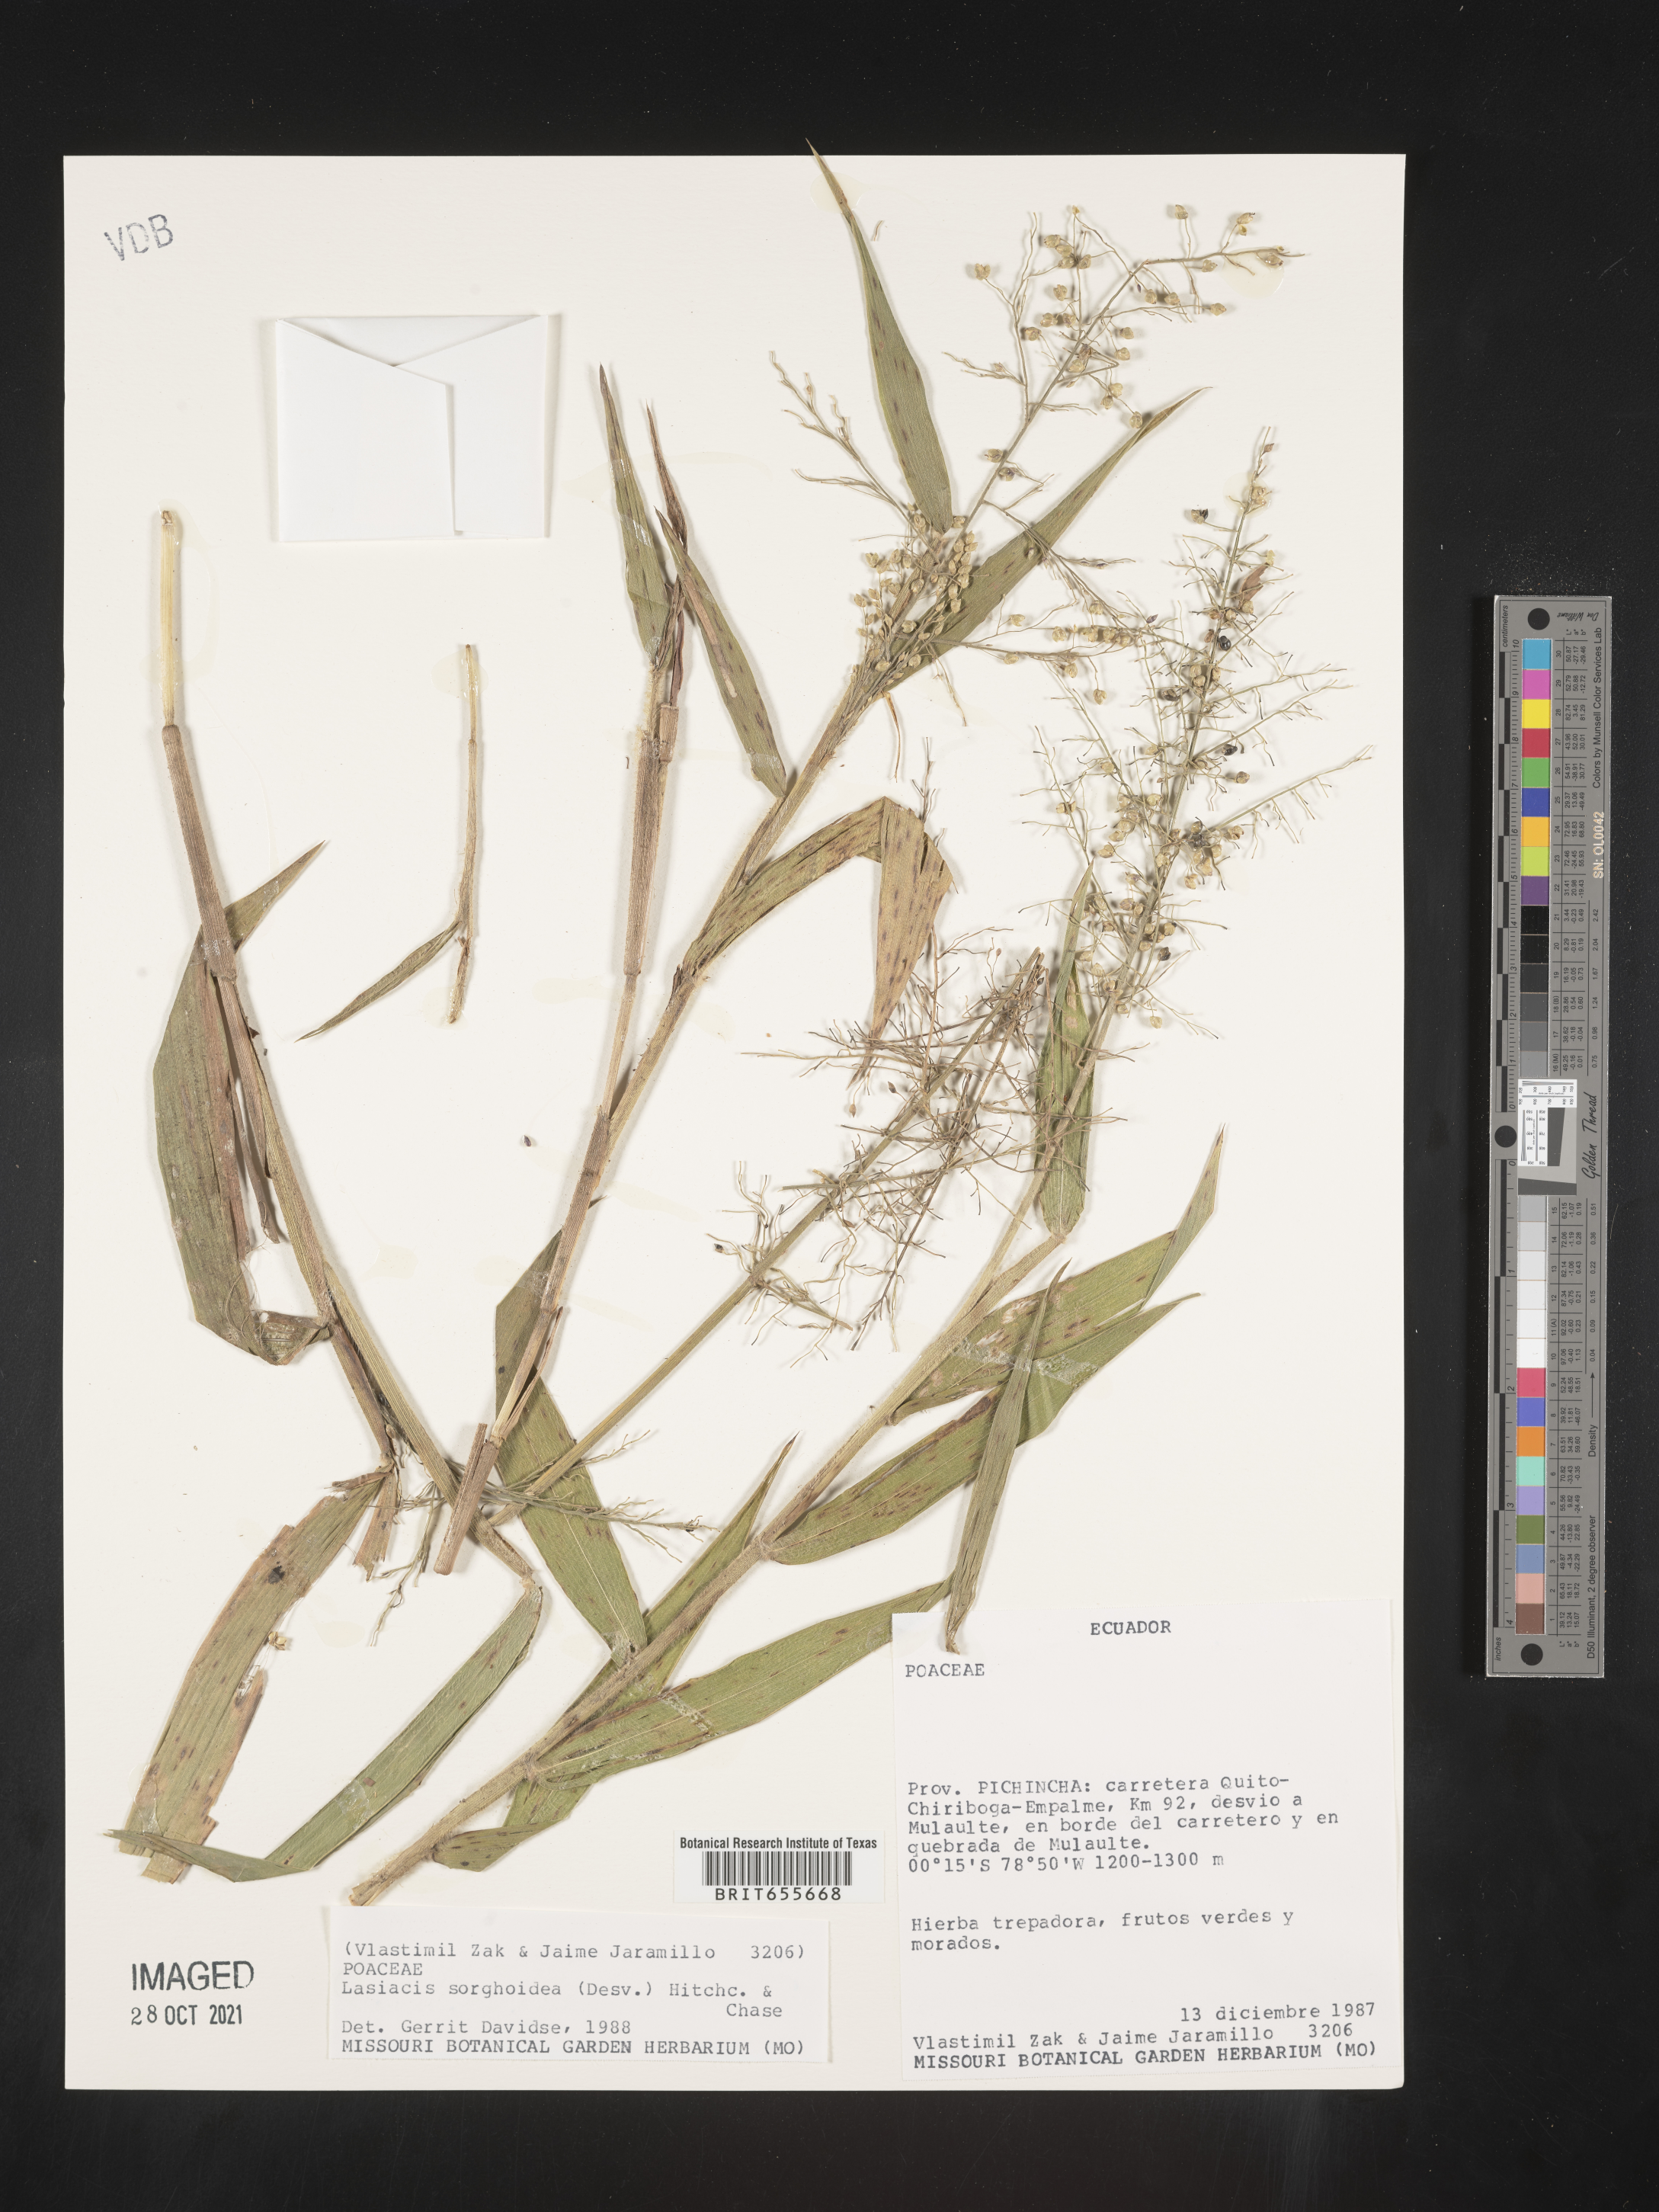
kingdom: Plantae
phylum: Tracheophyta
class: Liliopsida
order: Poales
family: Poaceae
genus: Lasiacis
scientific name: Lasiacis
